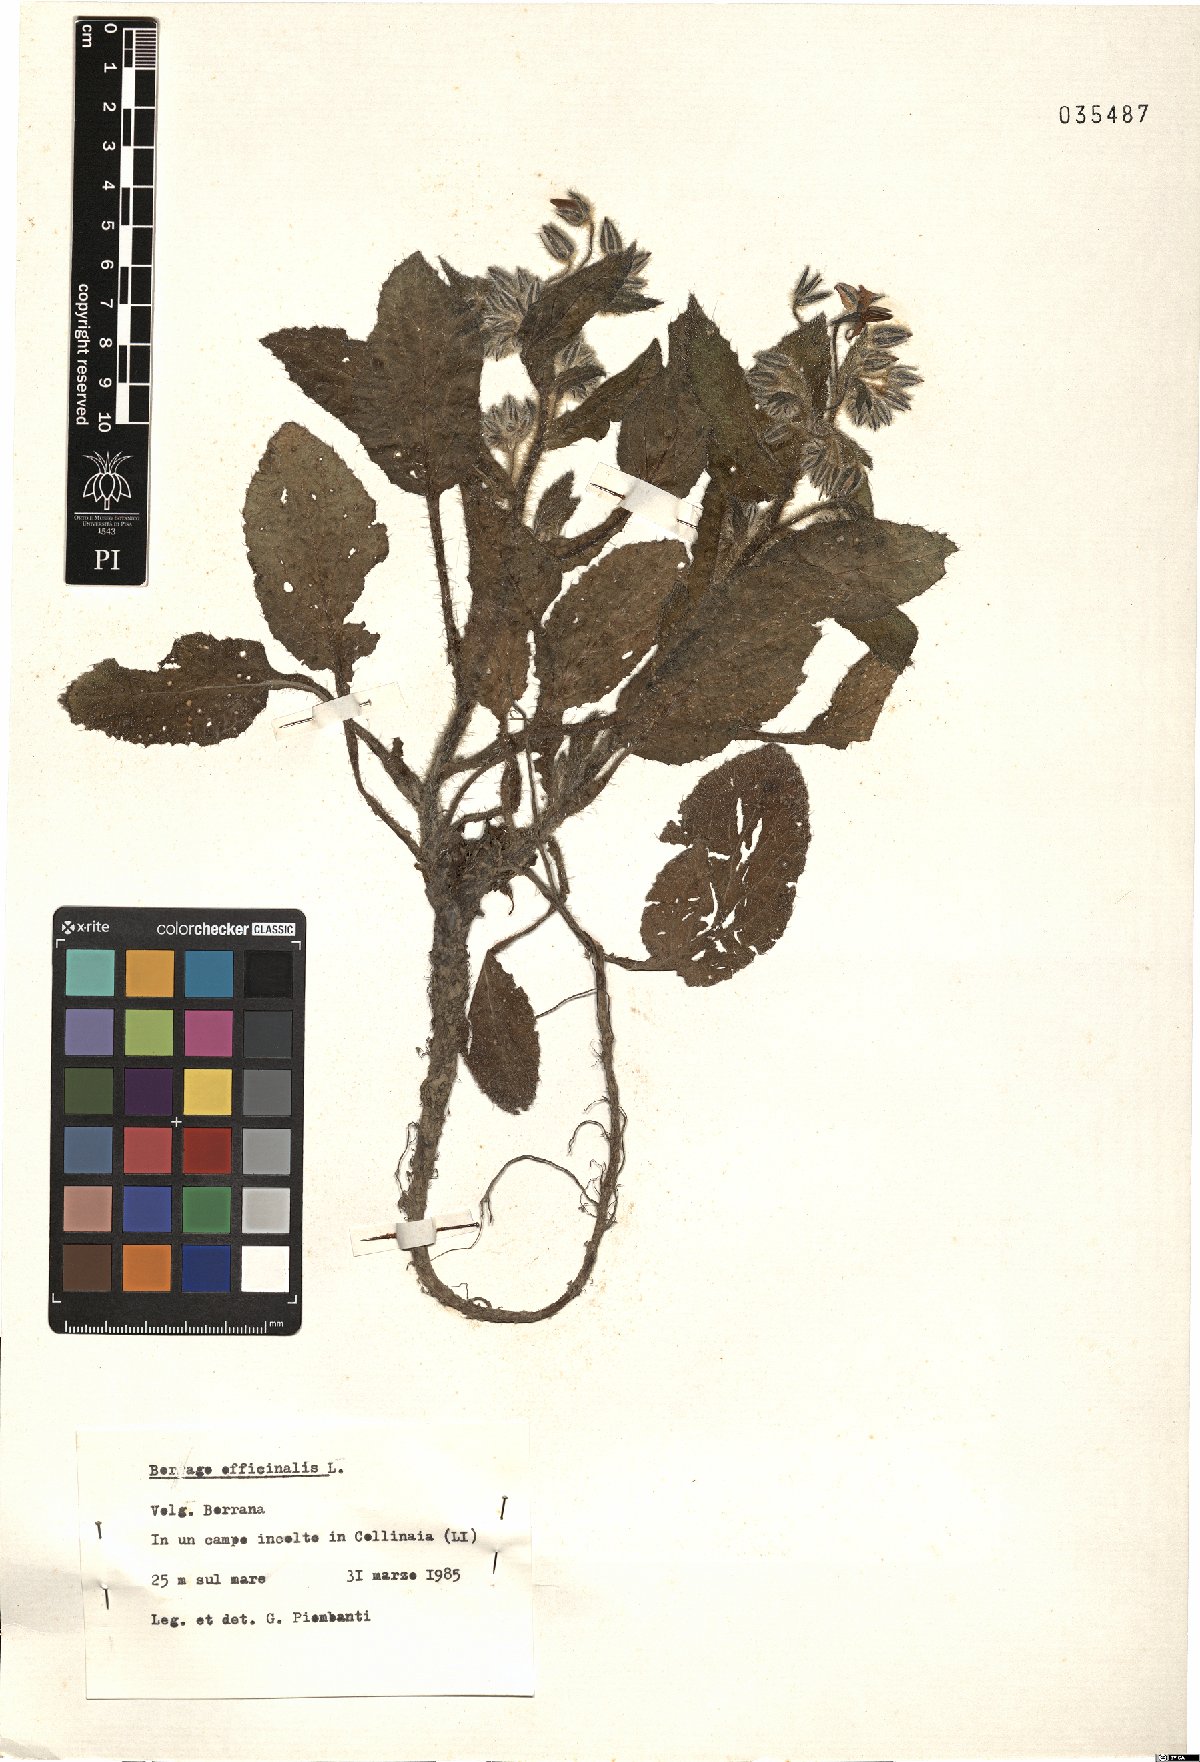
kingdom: Plantae
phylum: Tracheophyta
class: Magnoliopsida
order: Boraginales
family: Boraginaceae
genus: Borago
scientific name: Borago officinalis
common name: Borage
